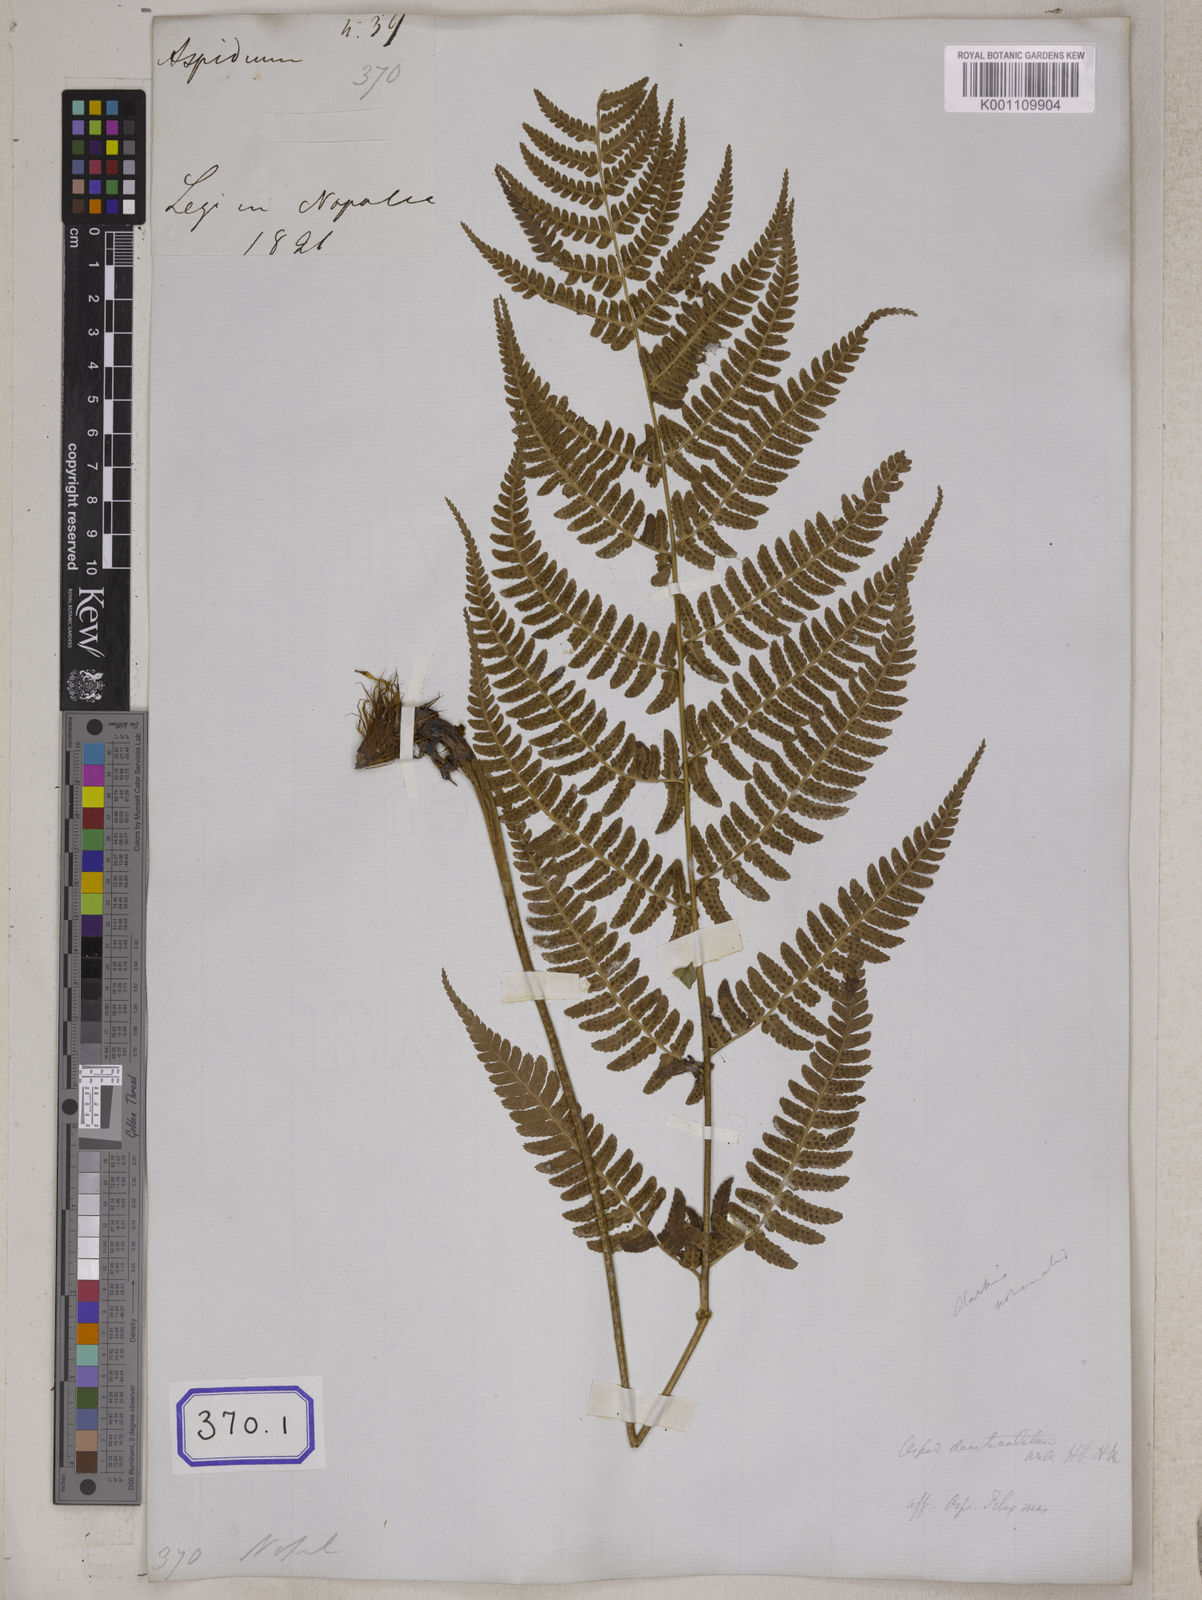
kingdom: Plantae
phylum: Tracheophyta
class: Polypodiopsida
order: Polypodiales
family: Dryopteridaceae
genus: Polystichum
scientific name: Polystichum pseudotsus-simense
